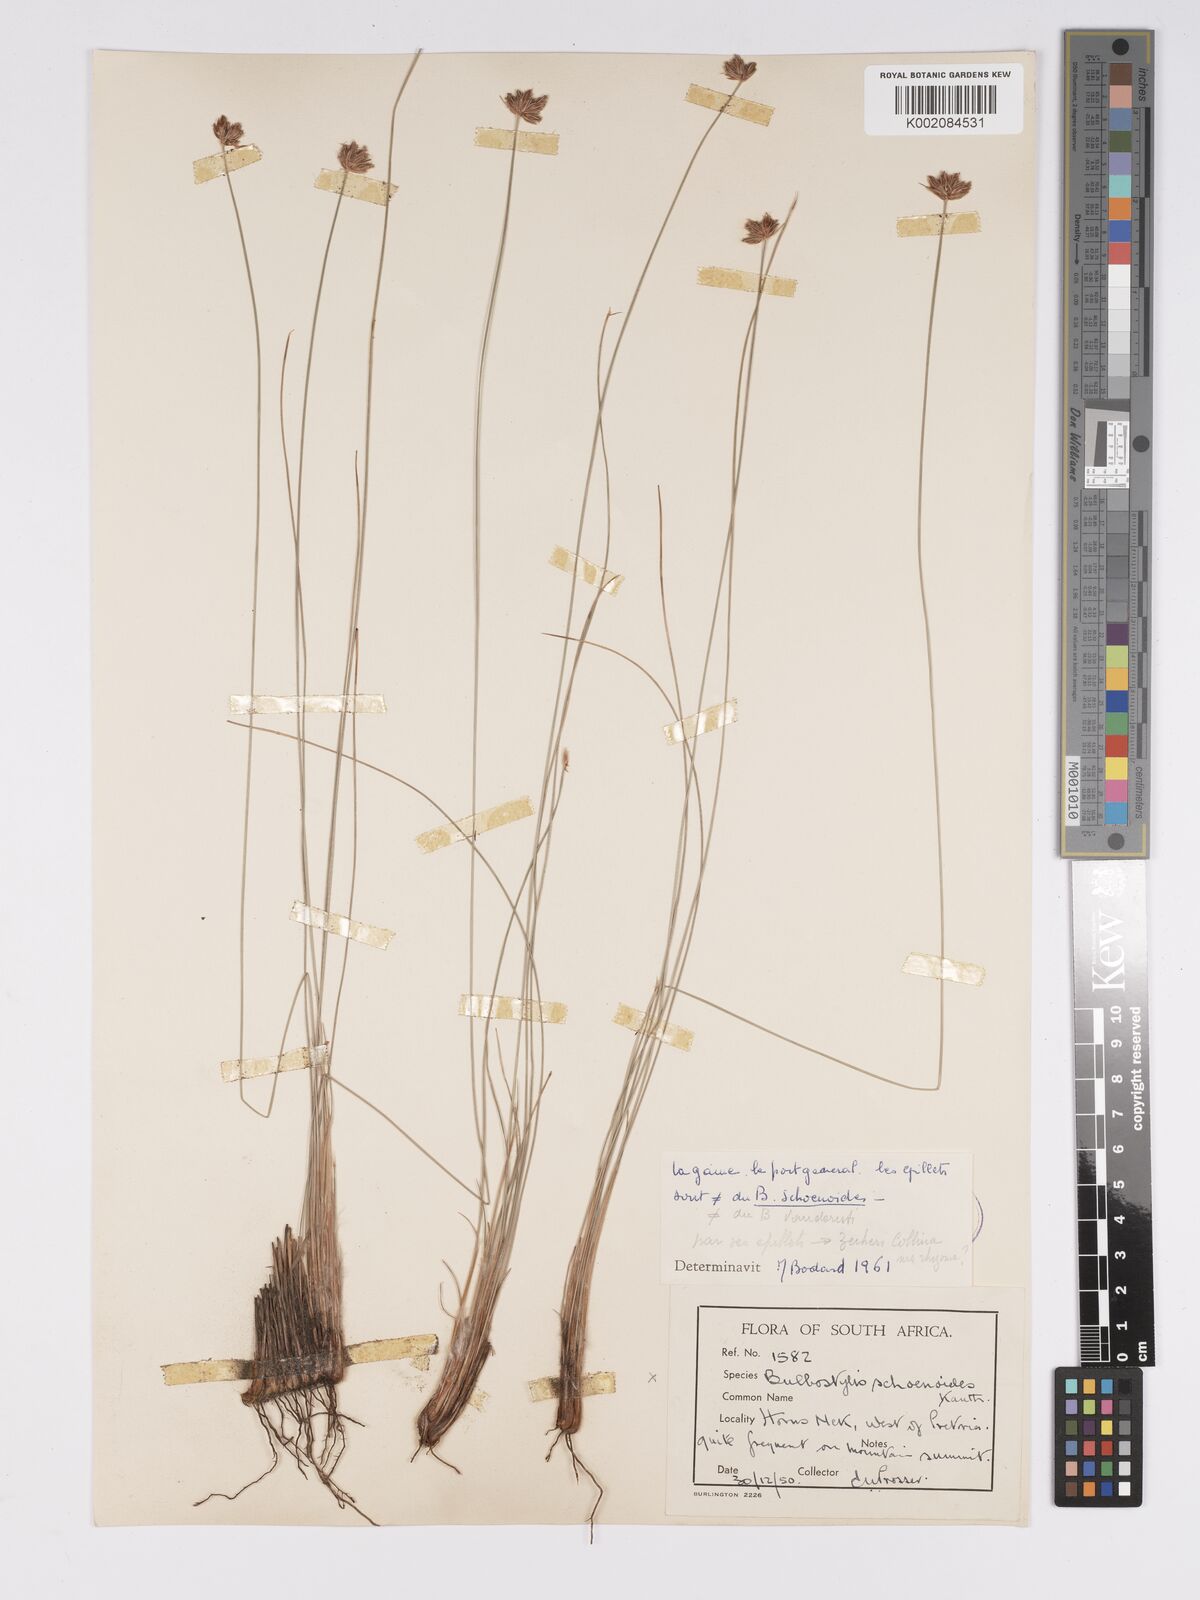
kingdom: Plantae
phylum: Tracheophyta
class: Liliopsida
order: Poales
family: Cyperaceae
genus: Bulbostylis
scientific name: Bulbostylis contexta
